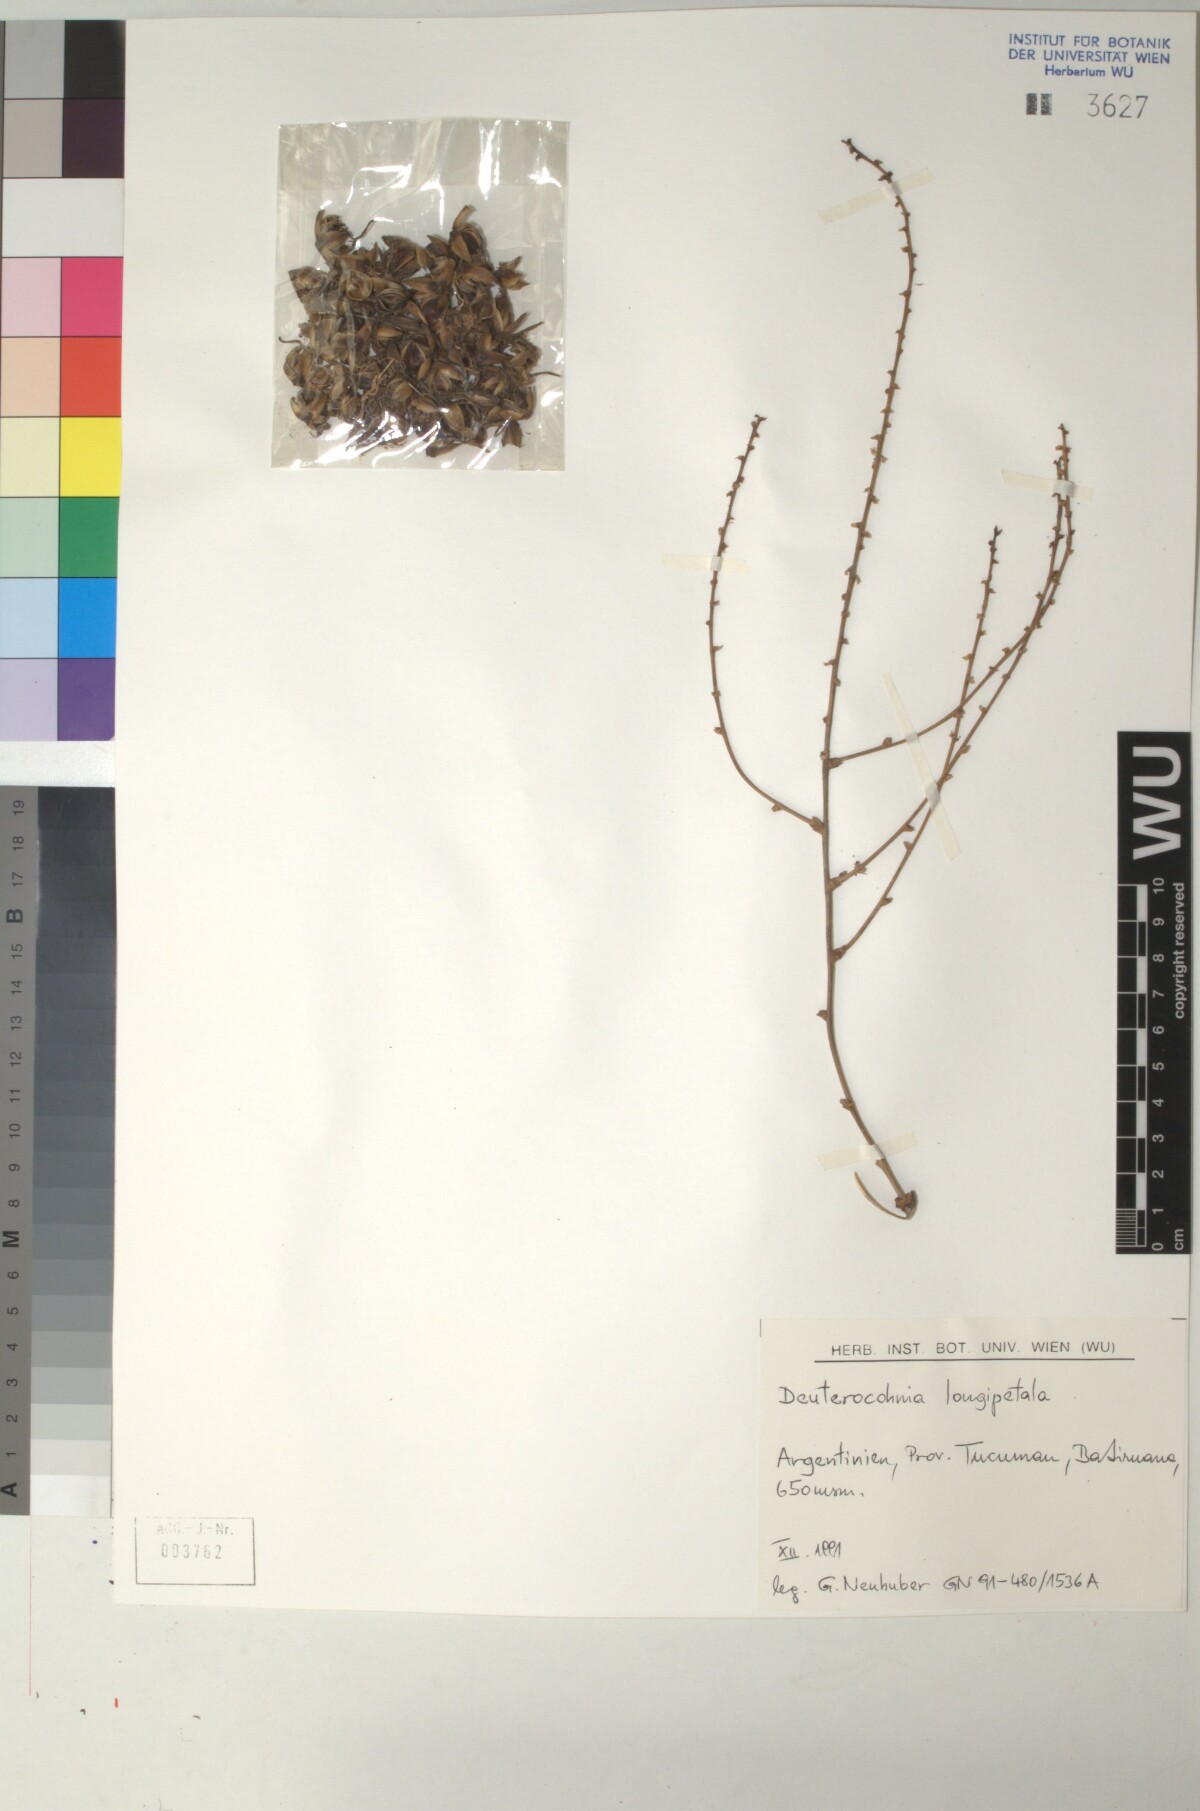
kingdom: Plantae
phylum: Tracheophyta
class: Liliopsida
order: Poales
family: Bromeliaceae
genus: Deuterocohnia
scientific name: Deuterocohnia longipetala
